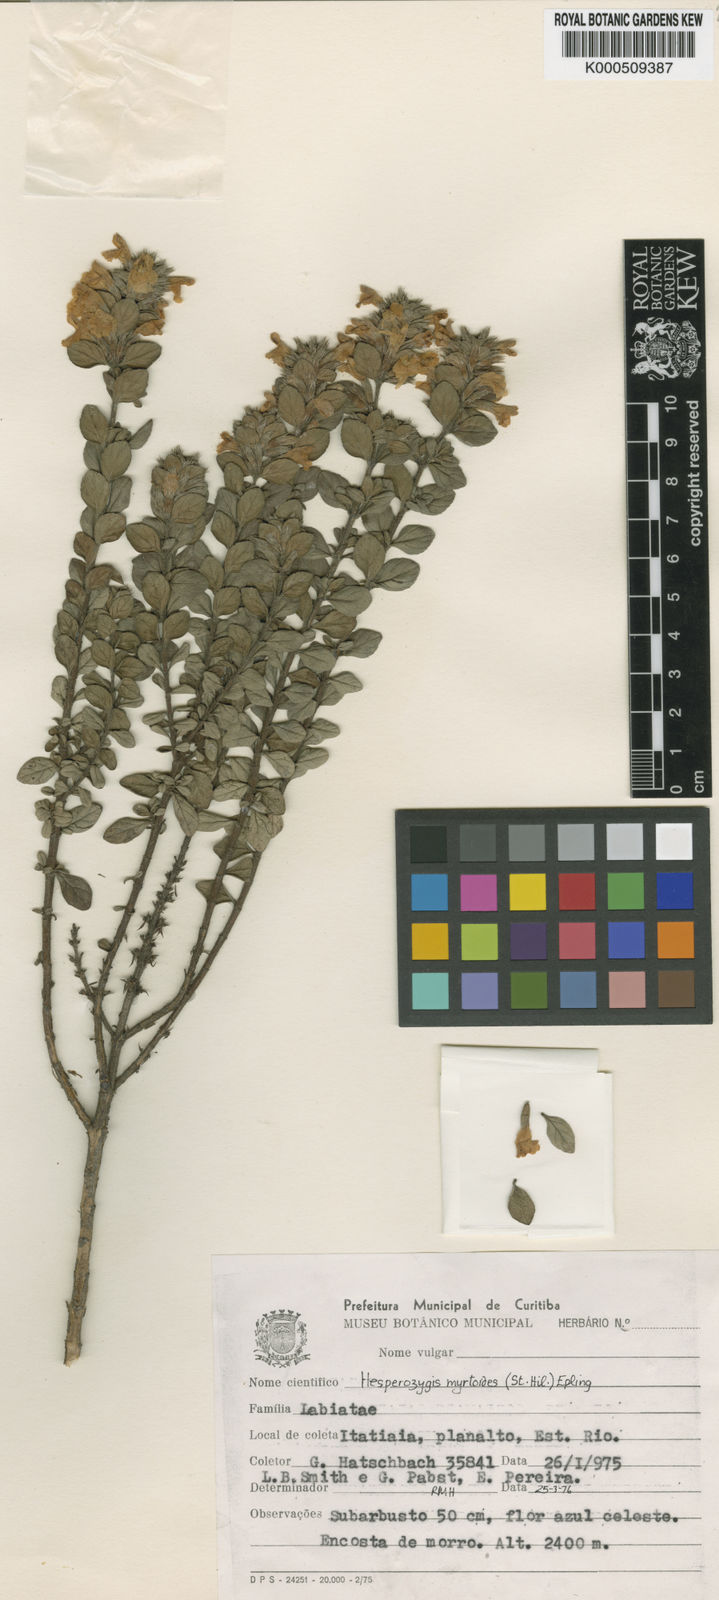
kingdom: Plantae
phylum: Tracheophyta
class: Magnoliopsida
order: Lamiales
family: Lamiaceae
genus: Hesperozygis
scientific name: Hesperozygis myrtoides
